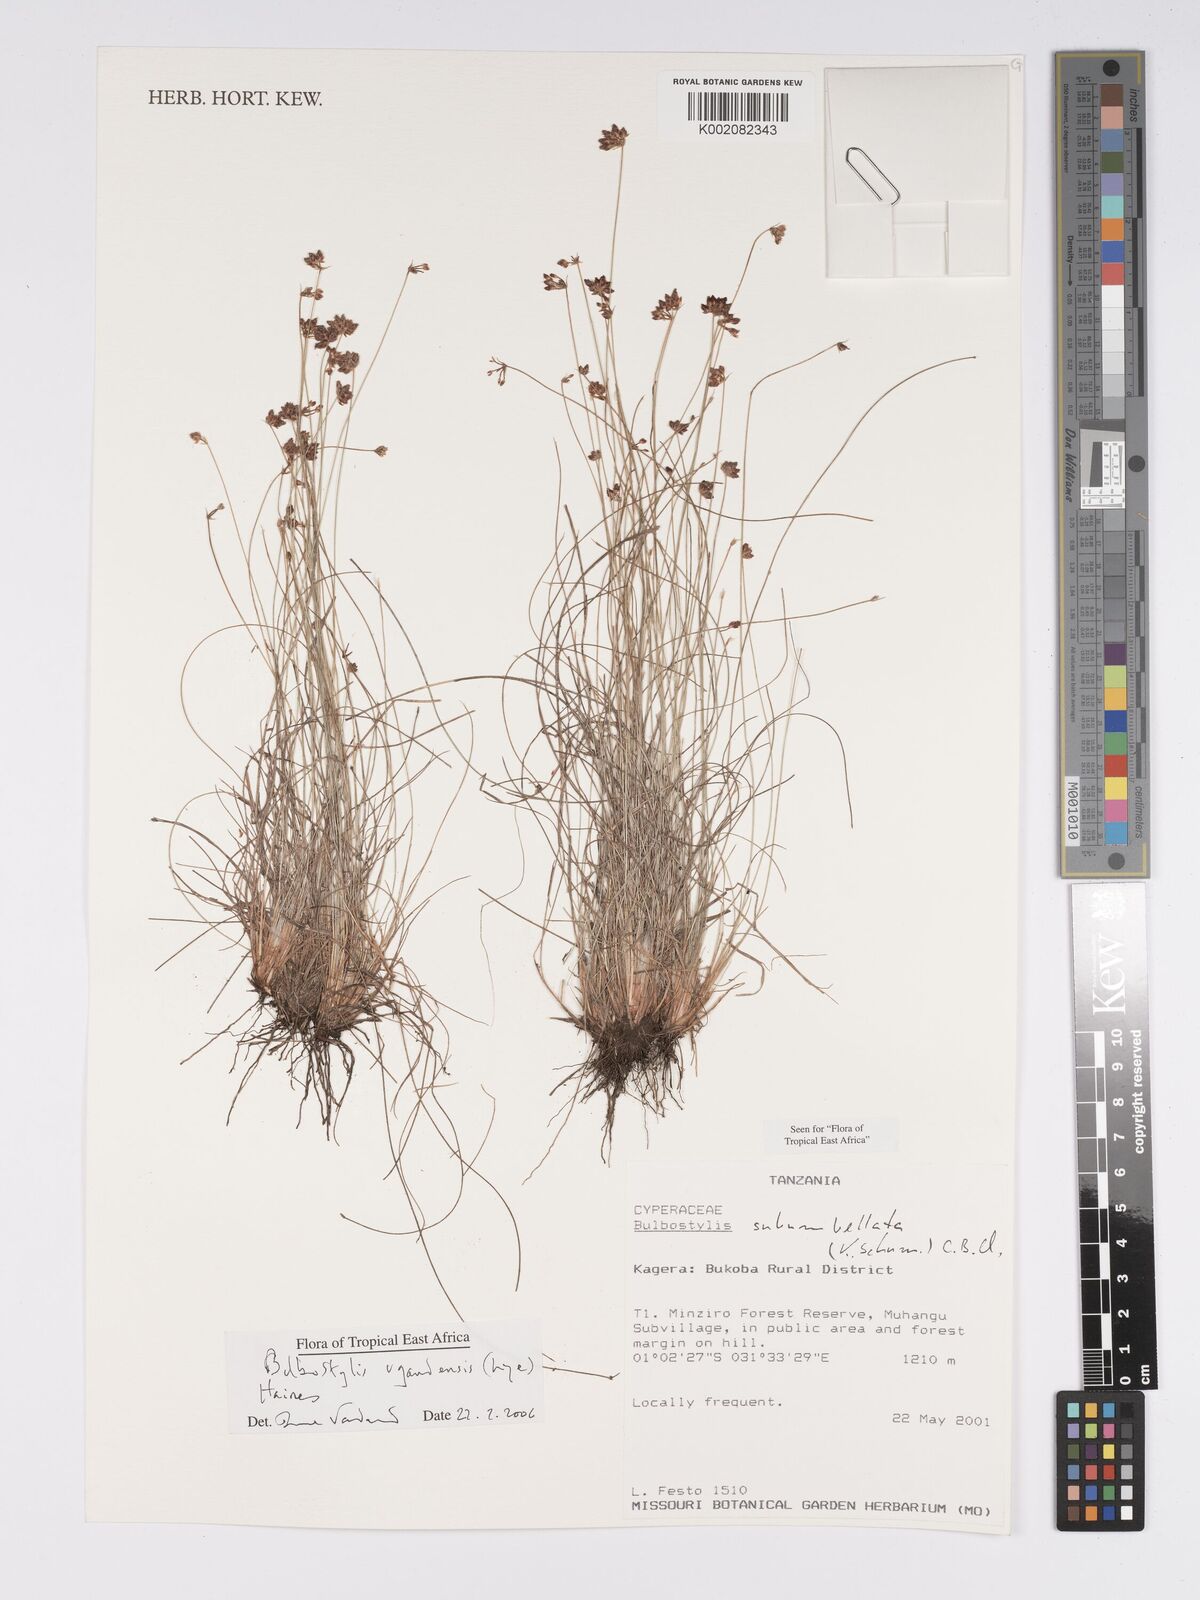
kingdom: Plantae
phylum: Tracheophyta
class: Liliopsida
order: Poales
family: Cyperaceae
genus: Bulbostylis
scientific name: Bulbostylis ugandensis
